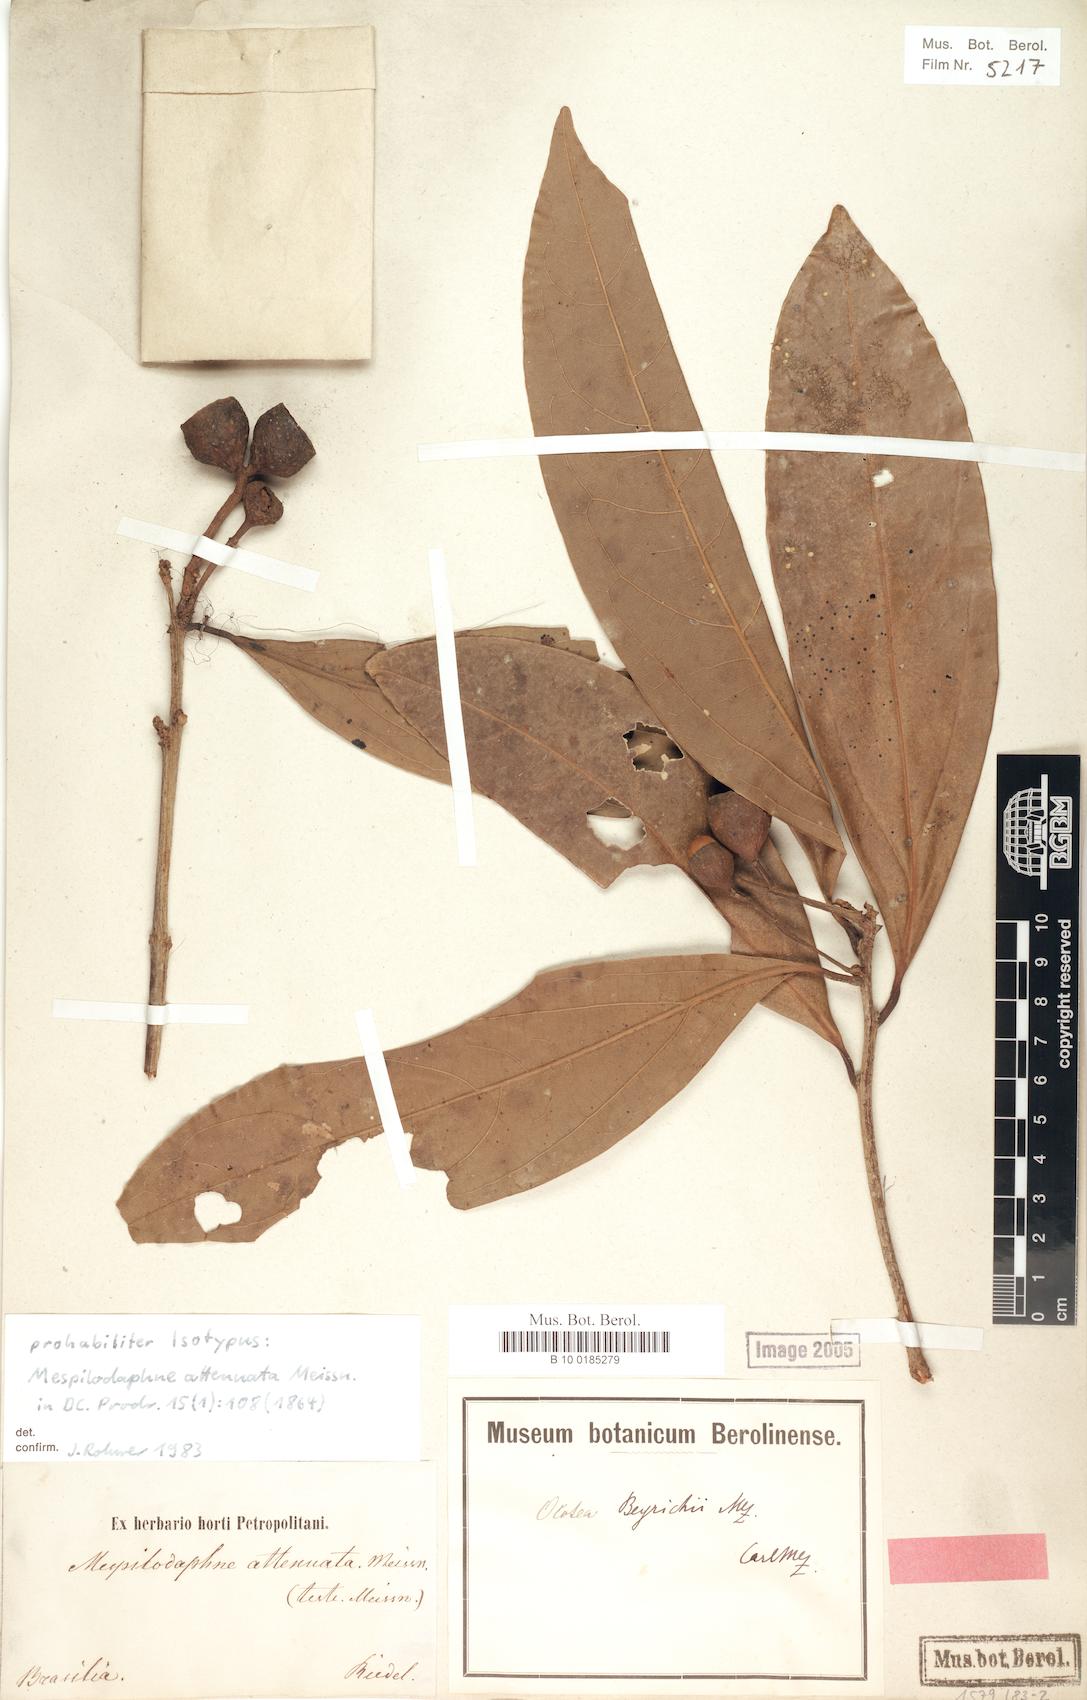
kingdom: Plantae
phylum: Tracheophyta
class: Magnoliopsida
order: Laurales
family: Lauraceae
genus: Ocotea
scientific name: Ocotea beyrichii
